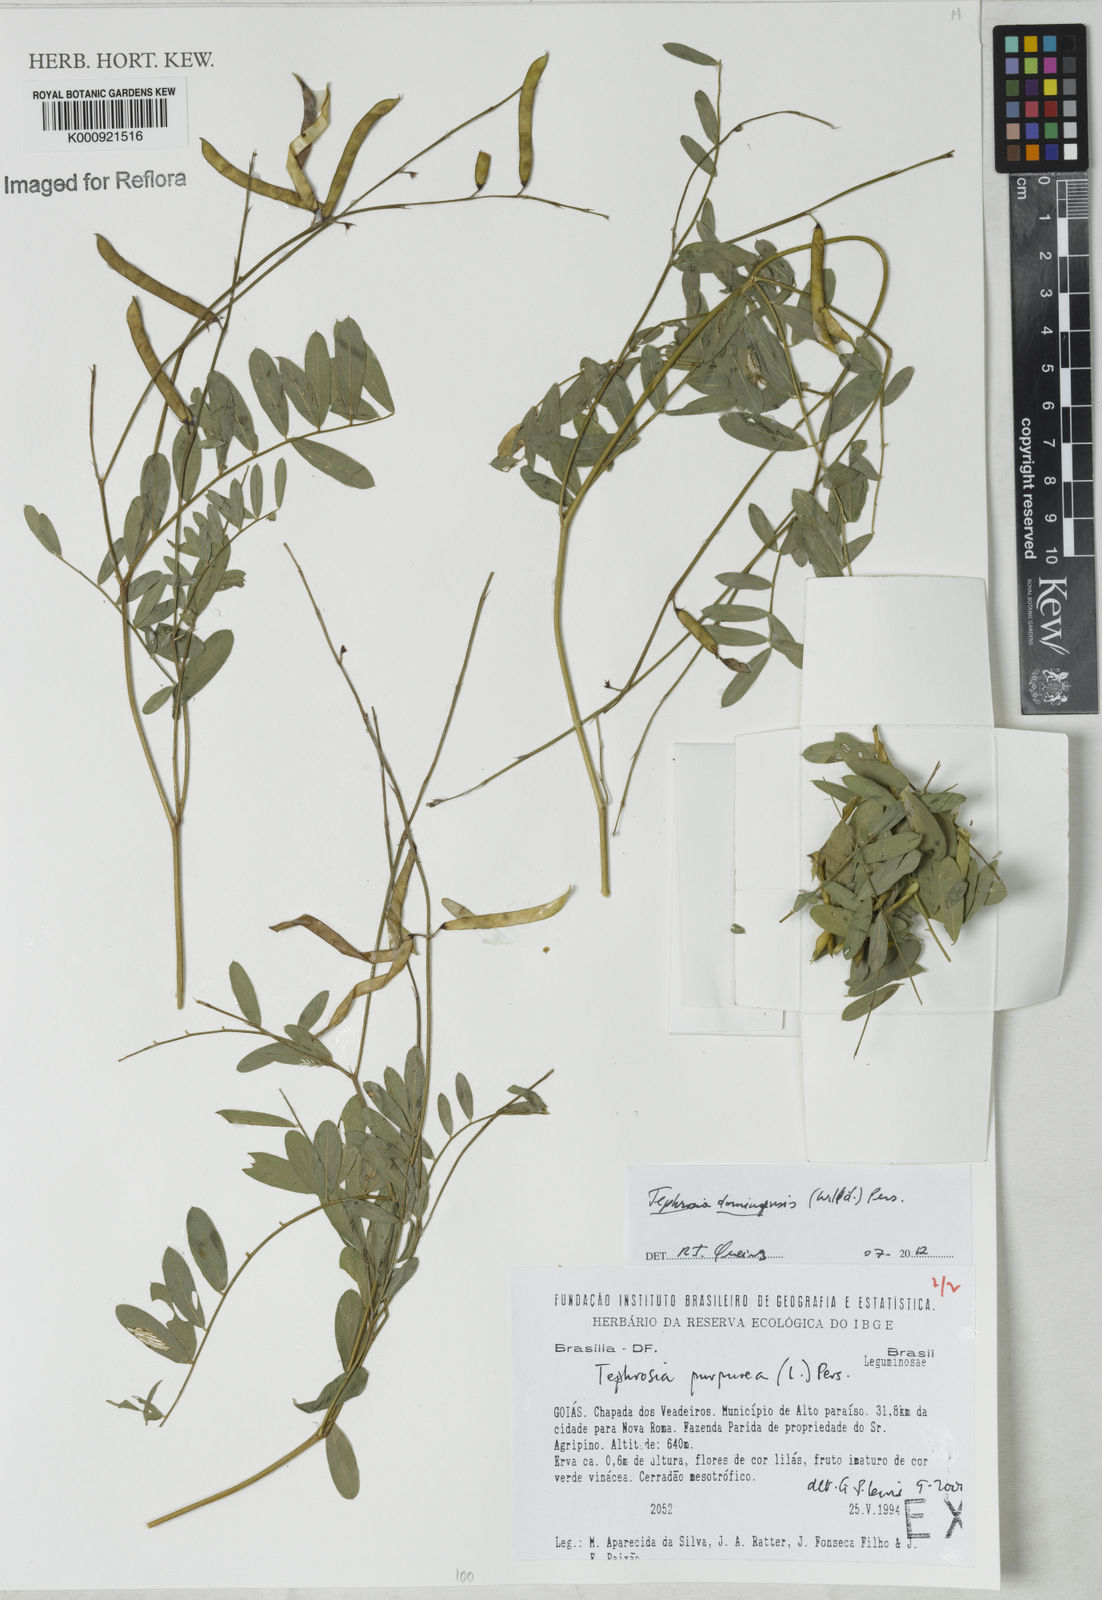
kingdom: Plantae
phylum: Tracheophyta
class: Magnoliopsida
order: Fabales
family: Fabaceae
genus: Tephrosia
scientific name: Tephrosia domingensis
